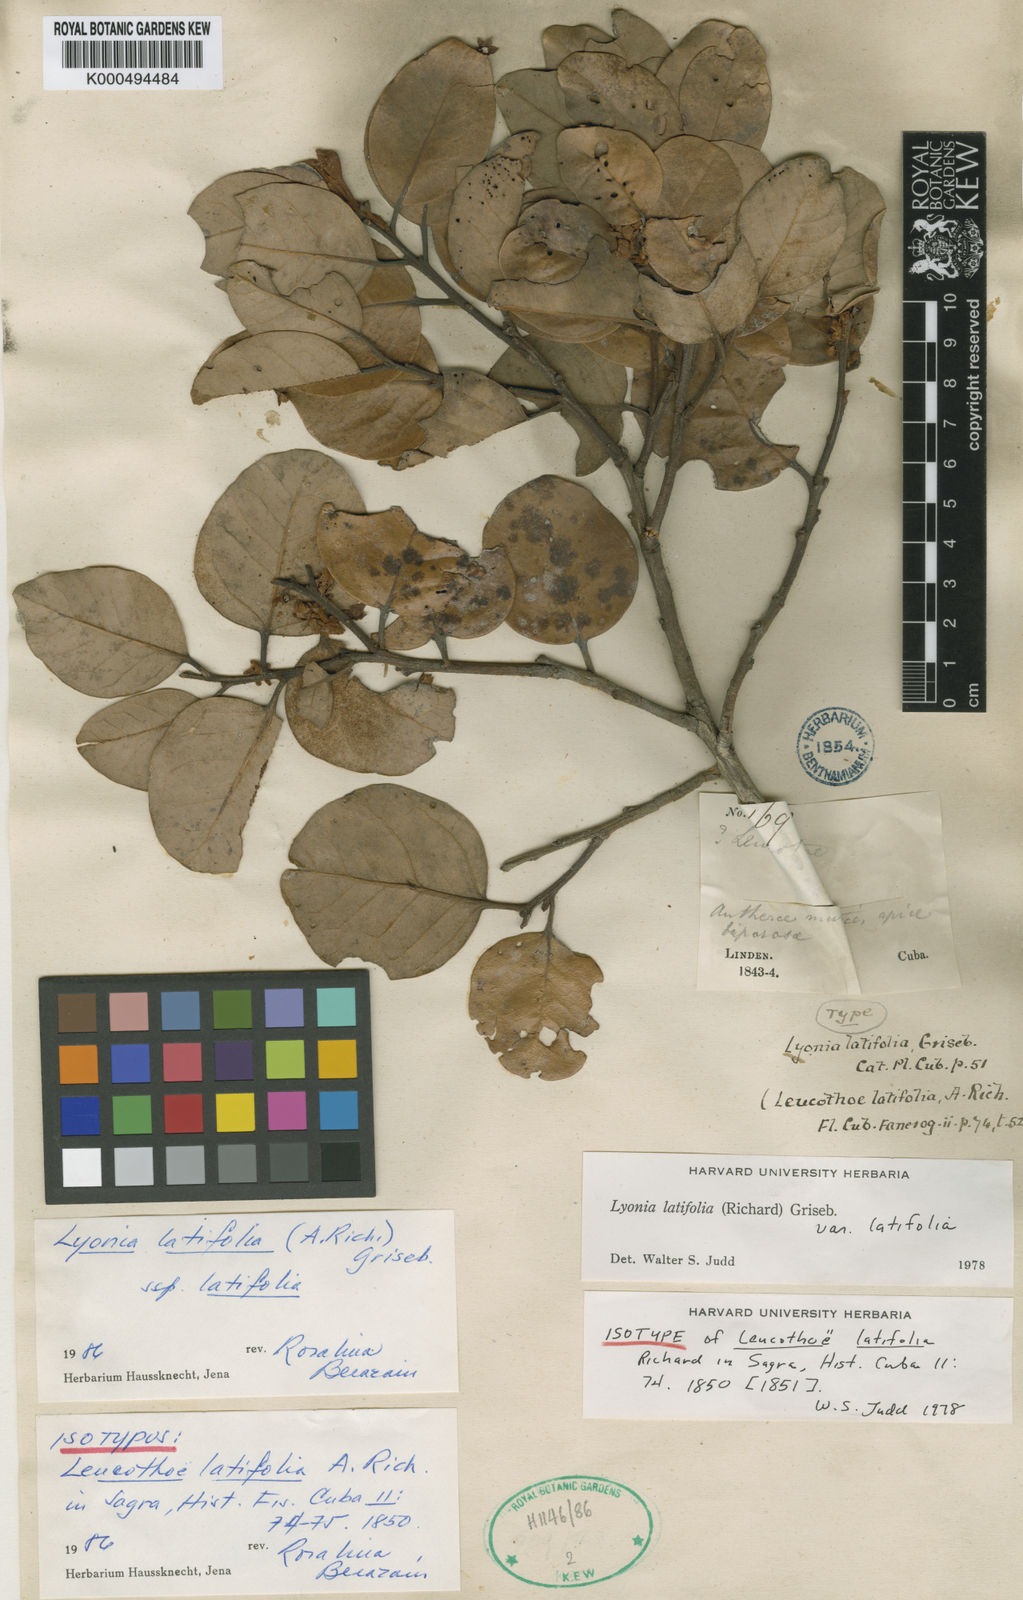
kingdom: Plantae
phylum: Tracheophyta
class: Magnoliopsida
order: Ericales
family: Ericaceae
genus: Lyonia
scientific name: Lyonia latifolia
